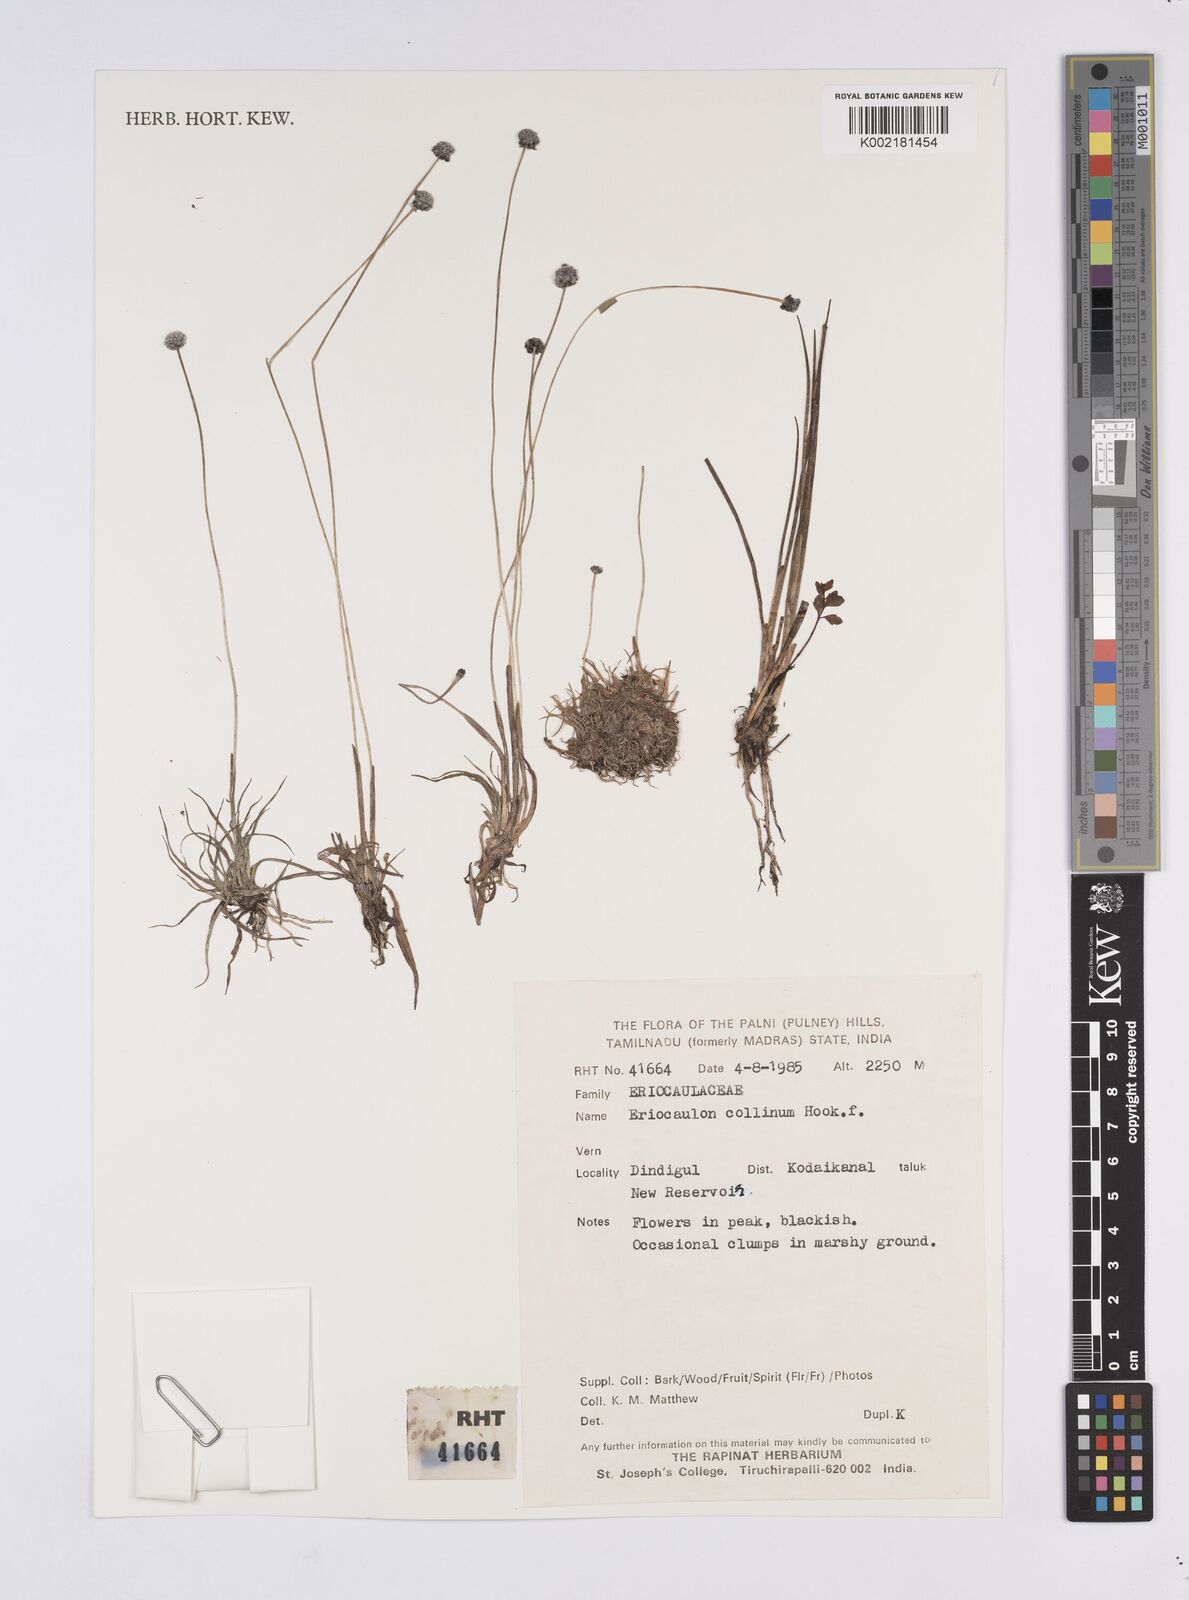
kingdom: Plantae
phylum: Tracheophyta
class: Liliopsida
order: Poales
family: Eriocaulaceae
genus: Eriocaulon
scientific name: Eriocaulon odoratum
